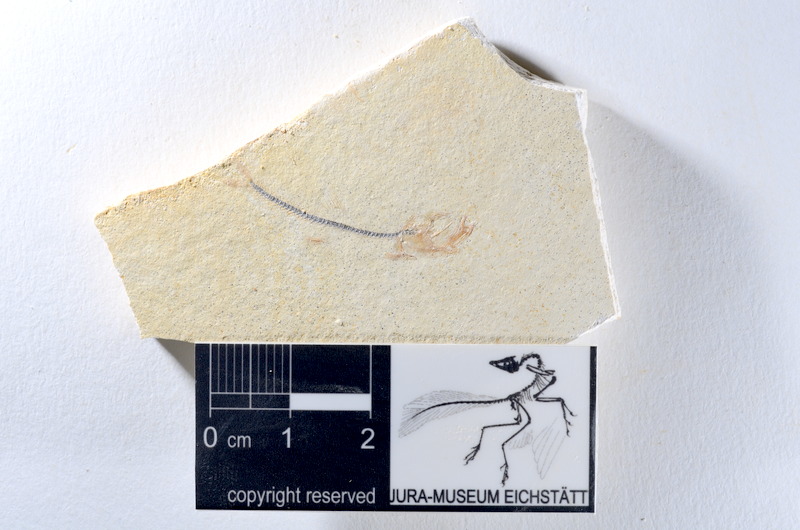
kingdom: Animalia
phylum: Chordata
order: Salmoniformes
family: Orthogonikleithridae
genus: Orthogonikleithrus
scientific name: Orthogonikleithrus hoelli
